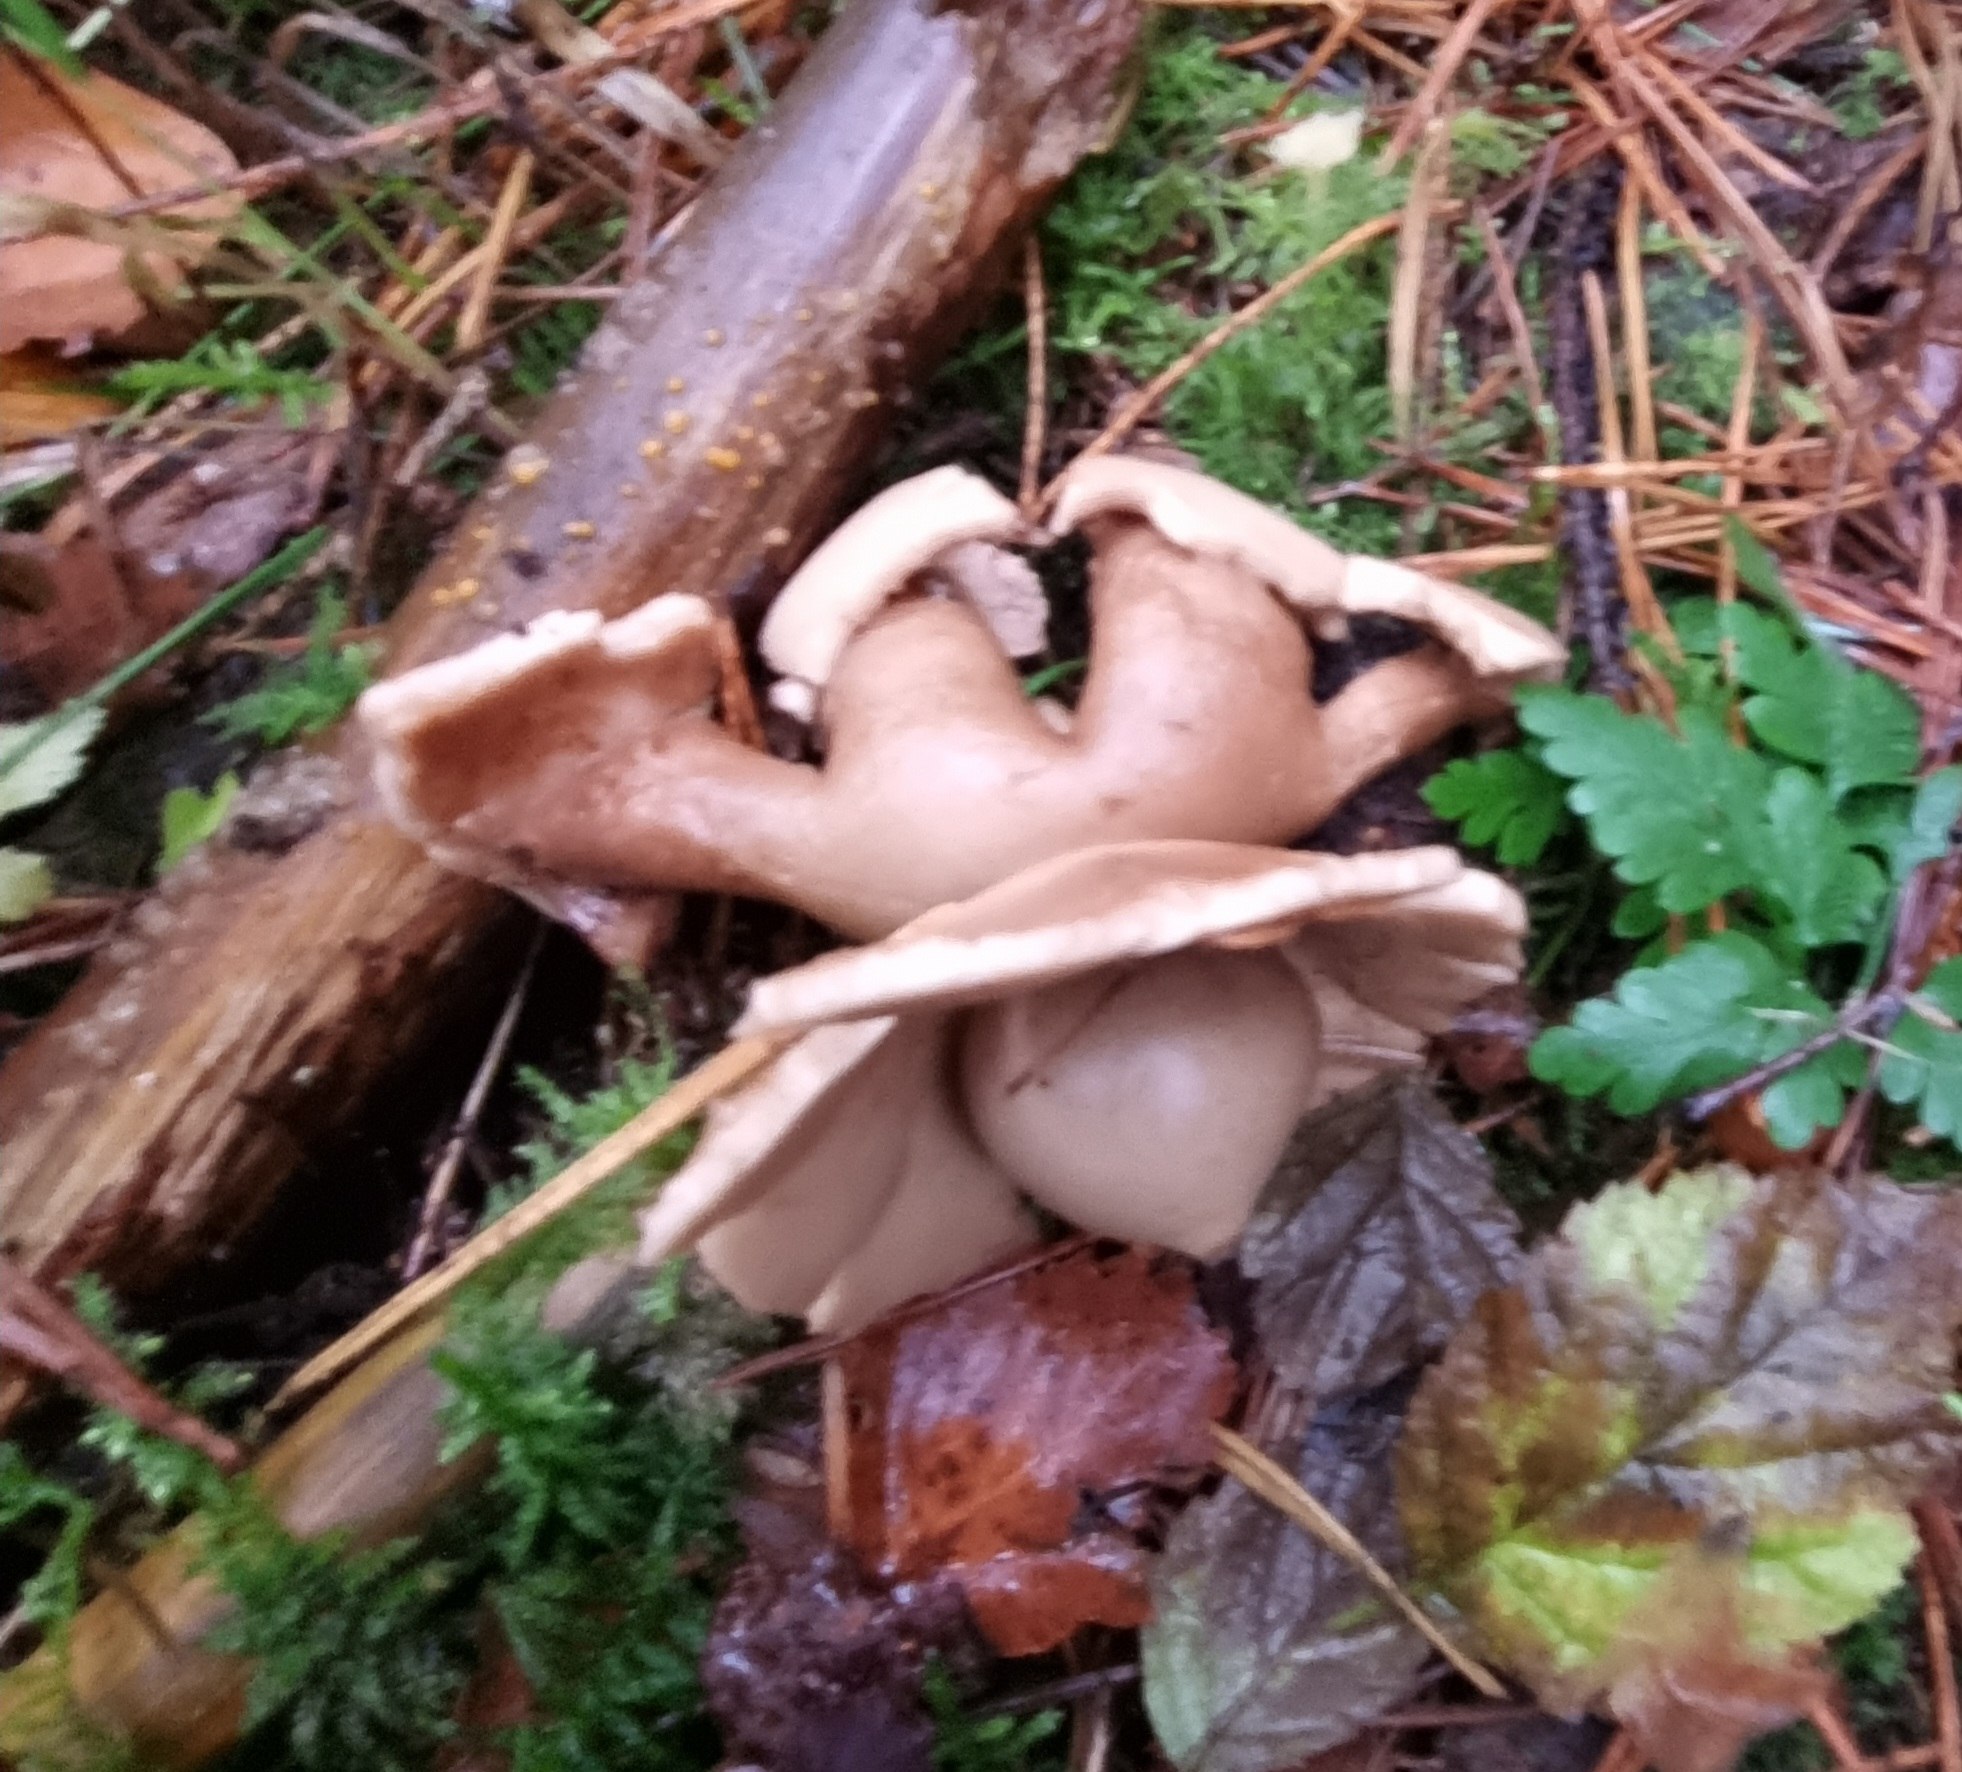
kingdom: Fungi
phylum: Basidiomycota
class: Agaricomycetes
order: Geastrales
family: Geastraceae
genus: Geastrum
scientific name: Geastrum michelianum
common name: kødet stjernebold
